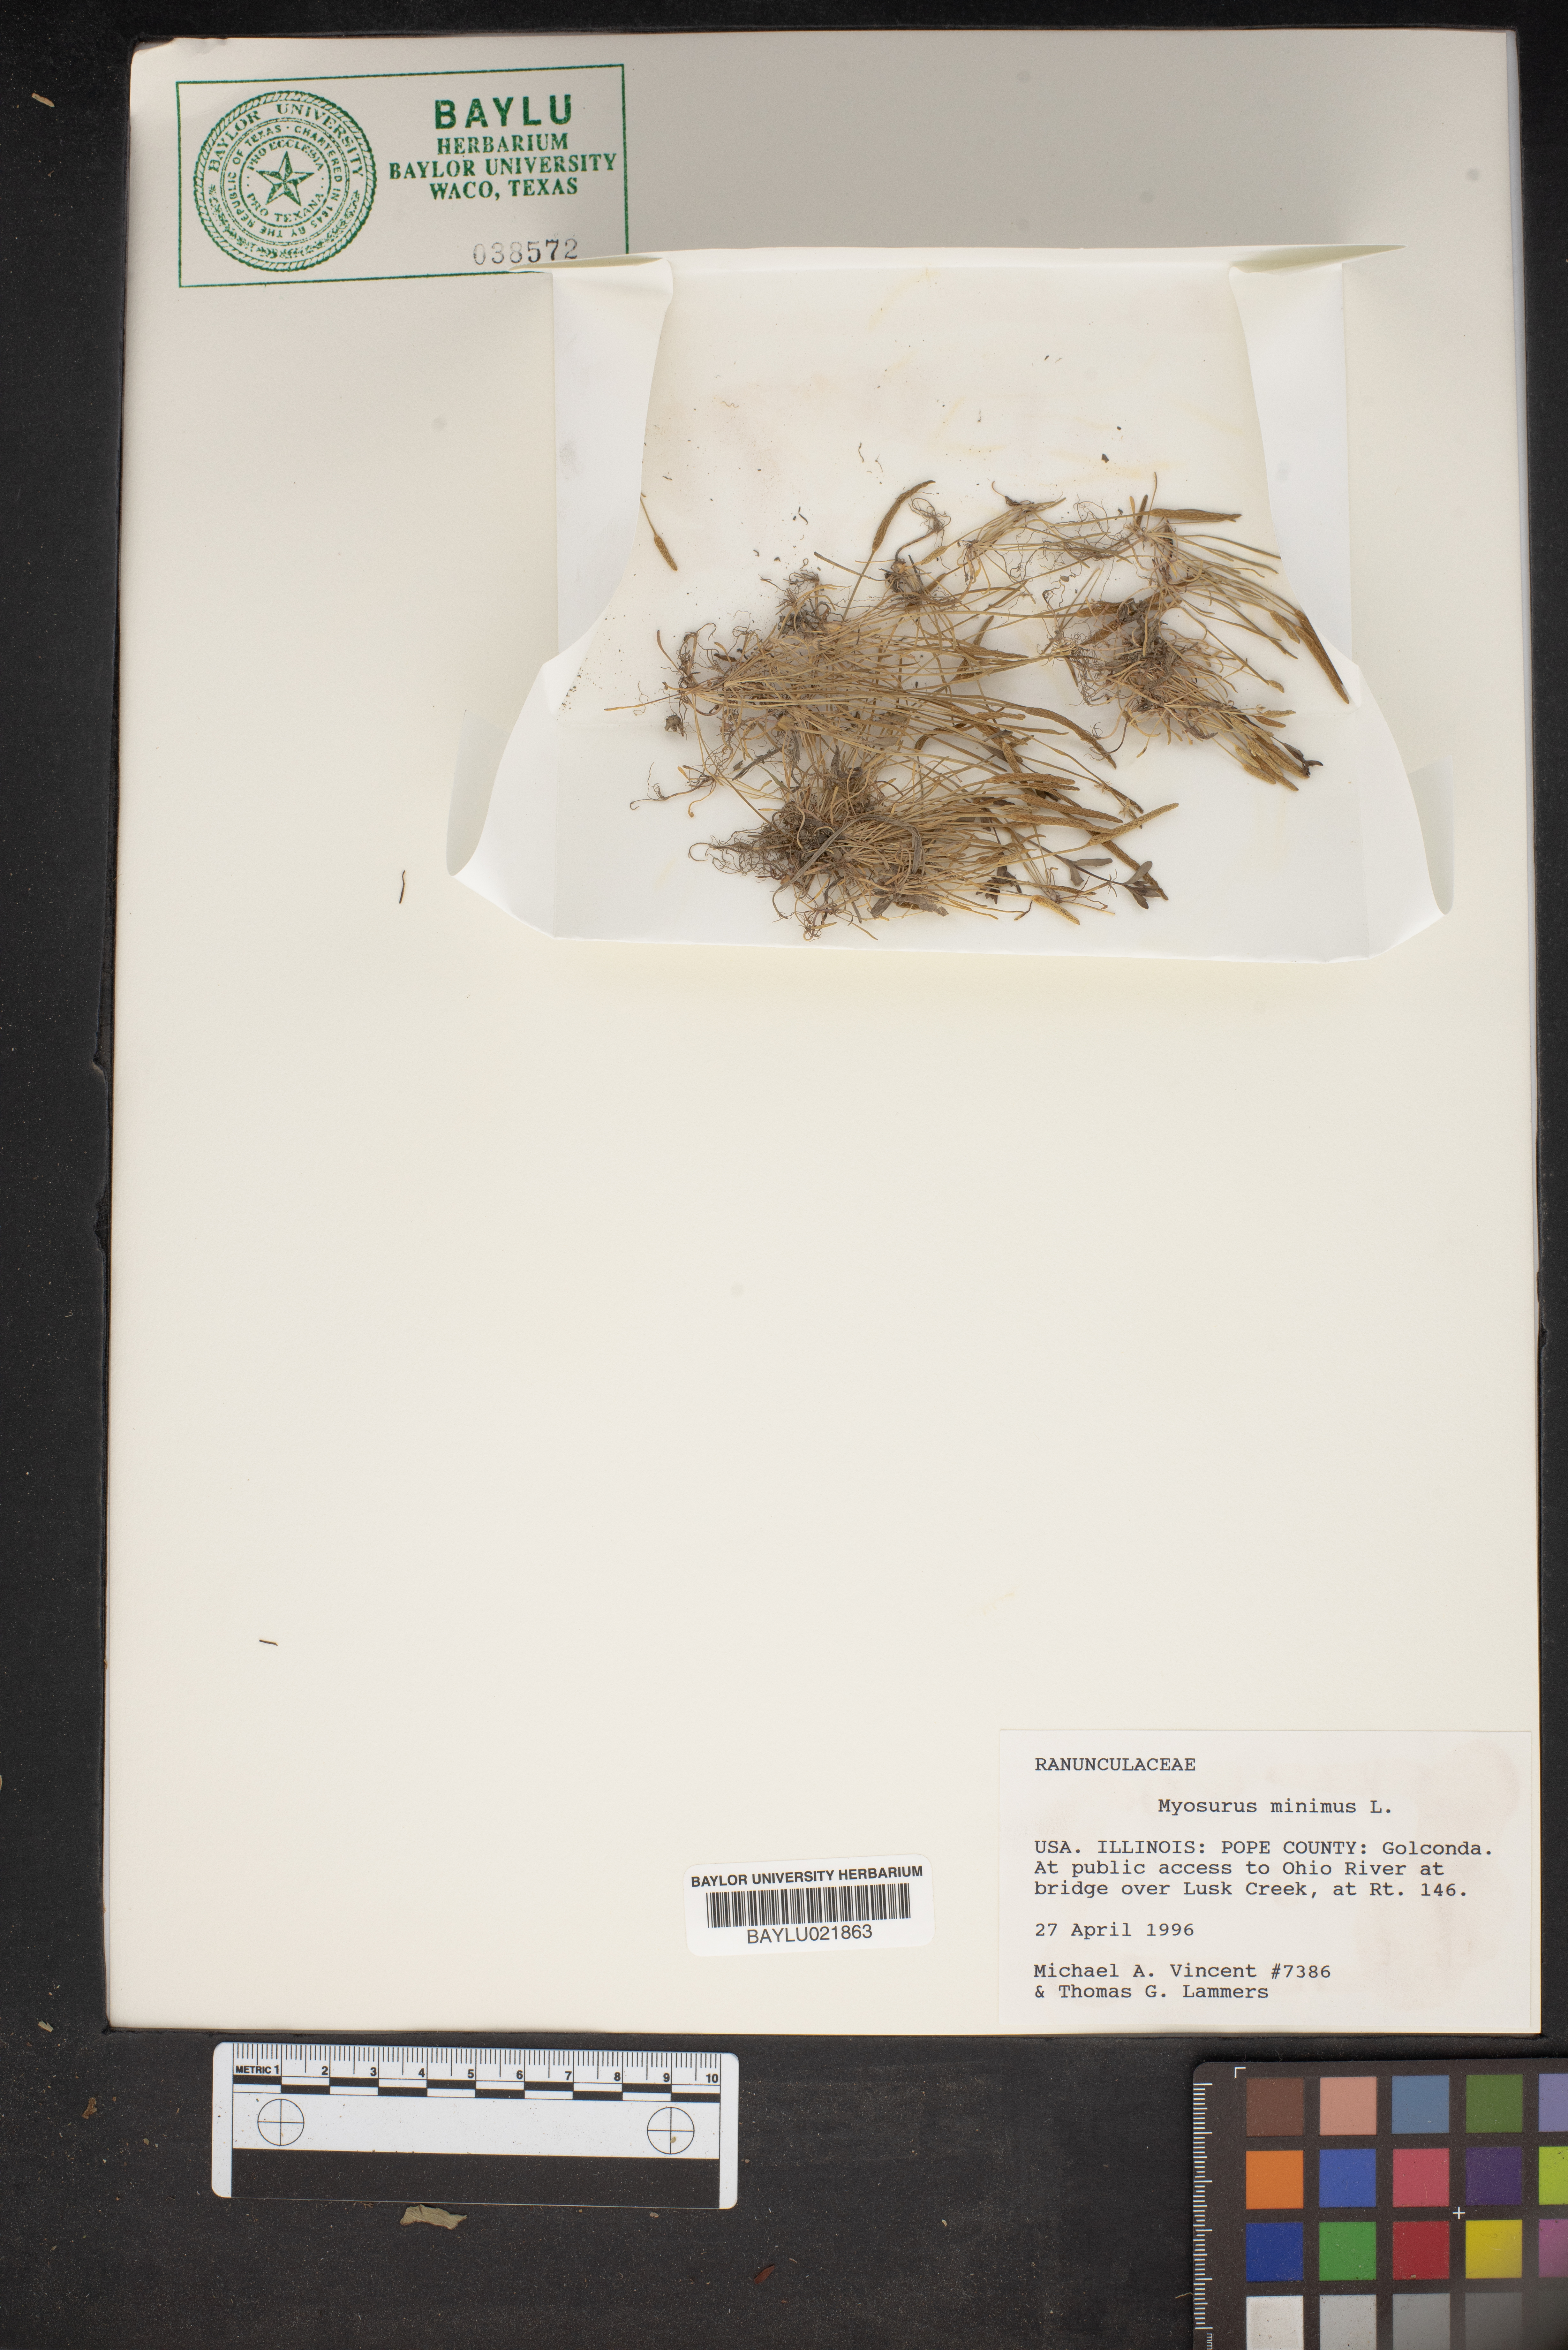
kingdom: Plantae
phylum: Tracheophyta
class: Magnoliopsida
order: Ranunculales
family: Ranunculaceae
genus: Myosurus
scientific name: Myosurus minimus
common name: Mousetail
